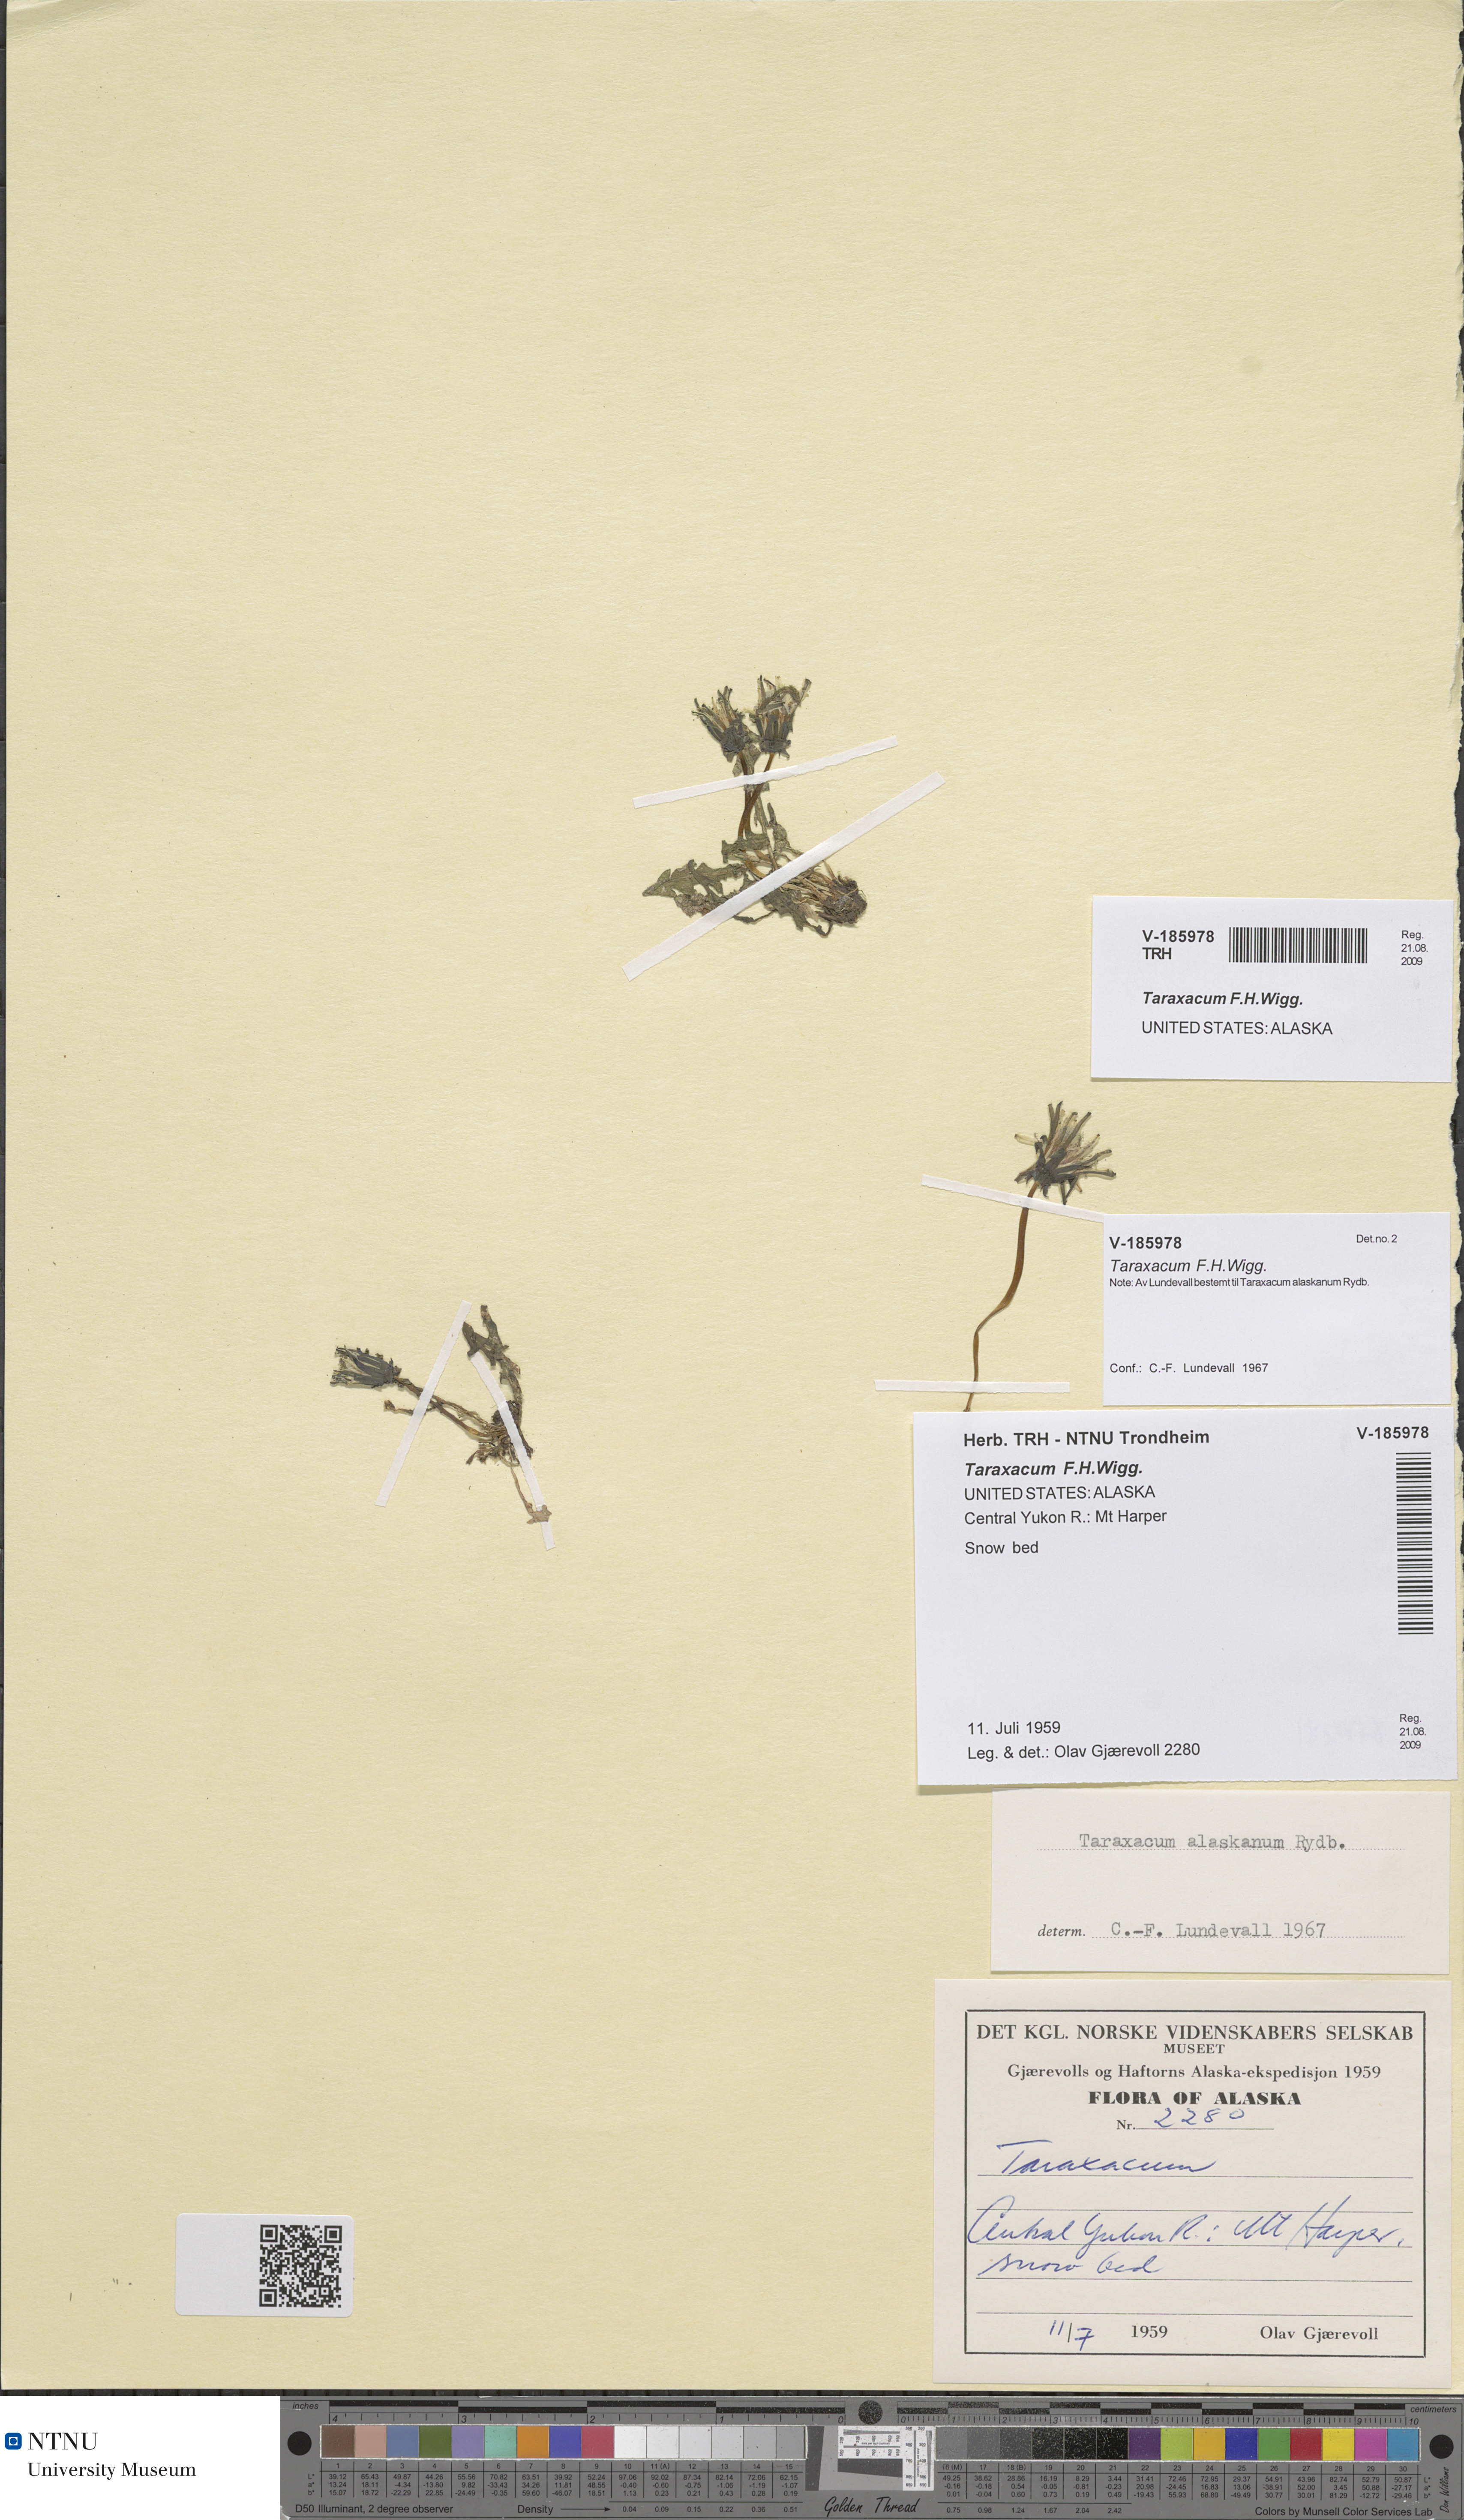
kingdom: Plantae
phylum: Tracheophyta
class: Magnoliopsida
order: Asterales
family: Asteraceae
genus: Taraxacum
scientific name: Taraxacum
